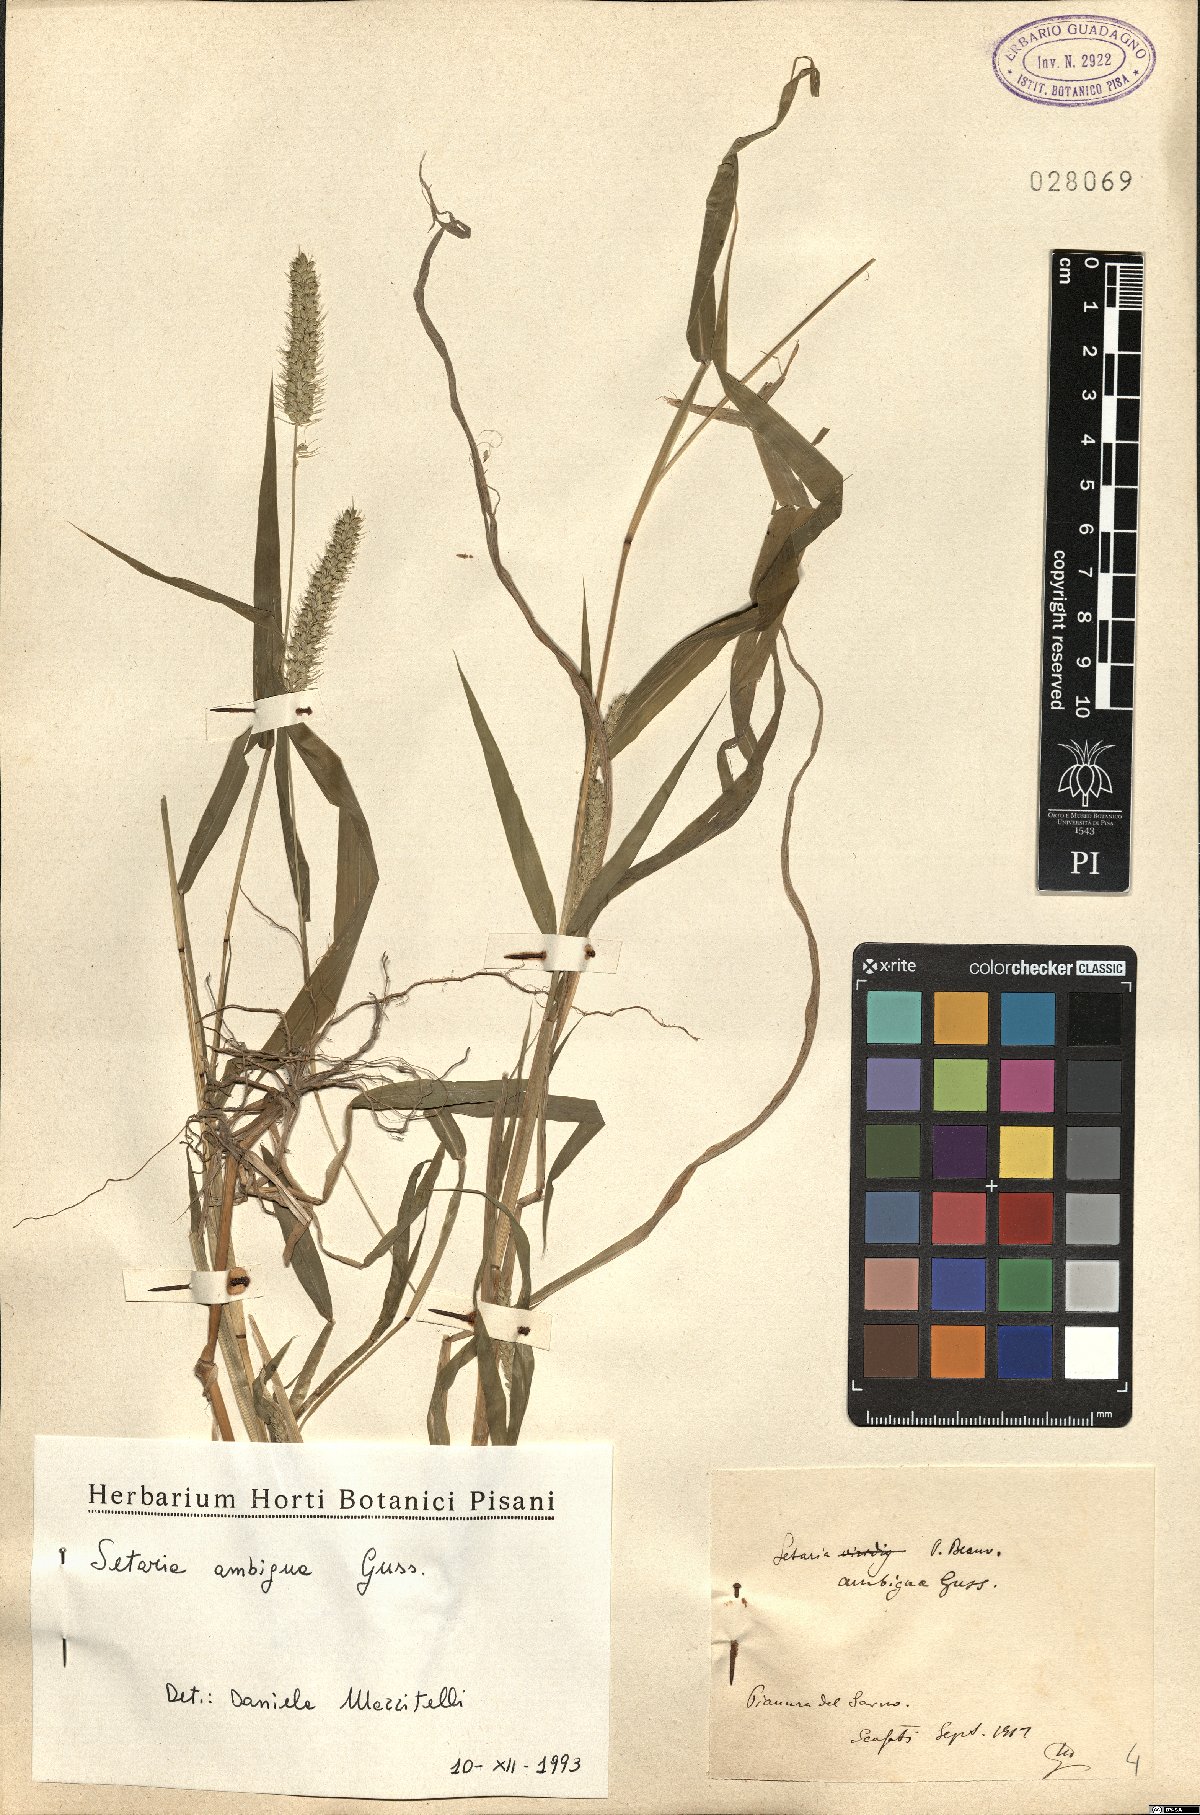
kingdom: Plantae
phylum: Tracheophyta
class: Liliopsida
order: Poales
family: Poaceae
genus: Setaria
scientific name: Setaria verticillata
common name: Hooked bristlegrass
